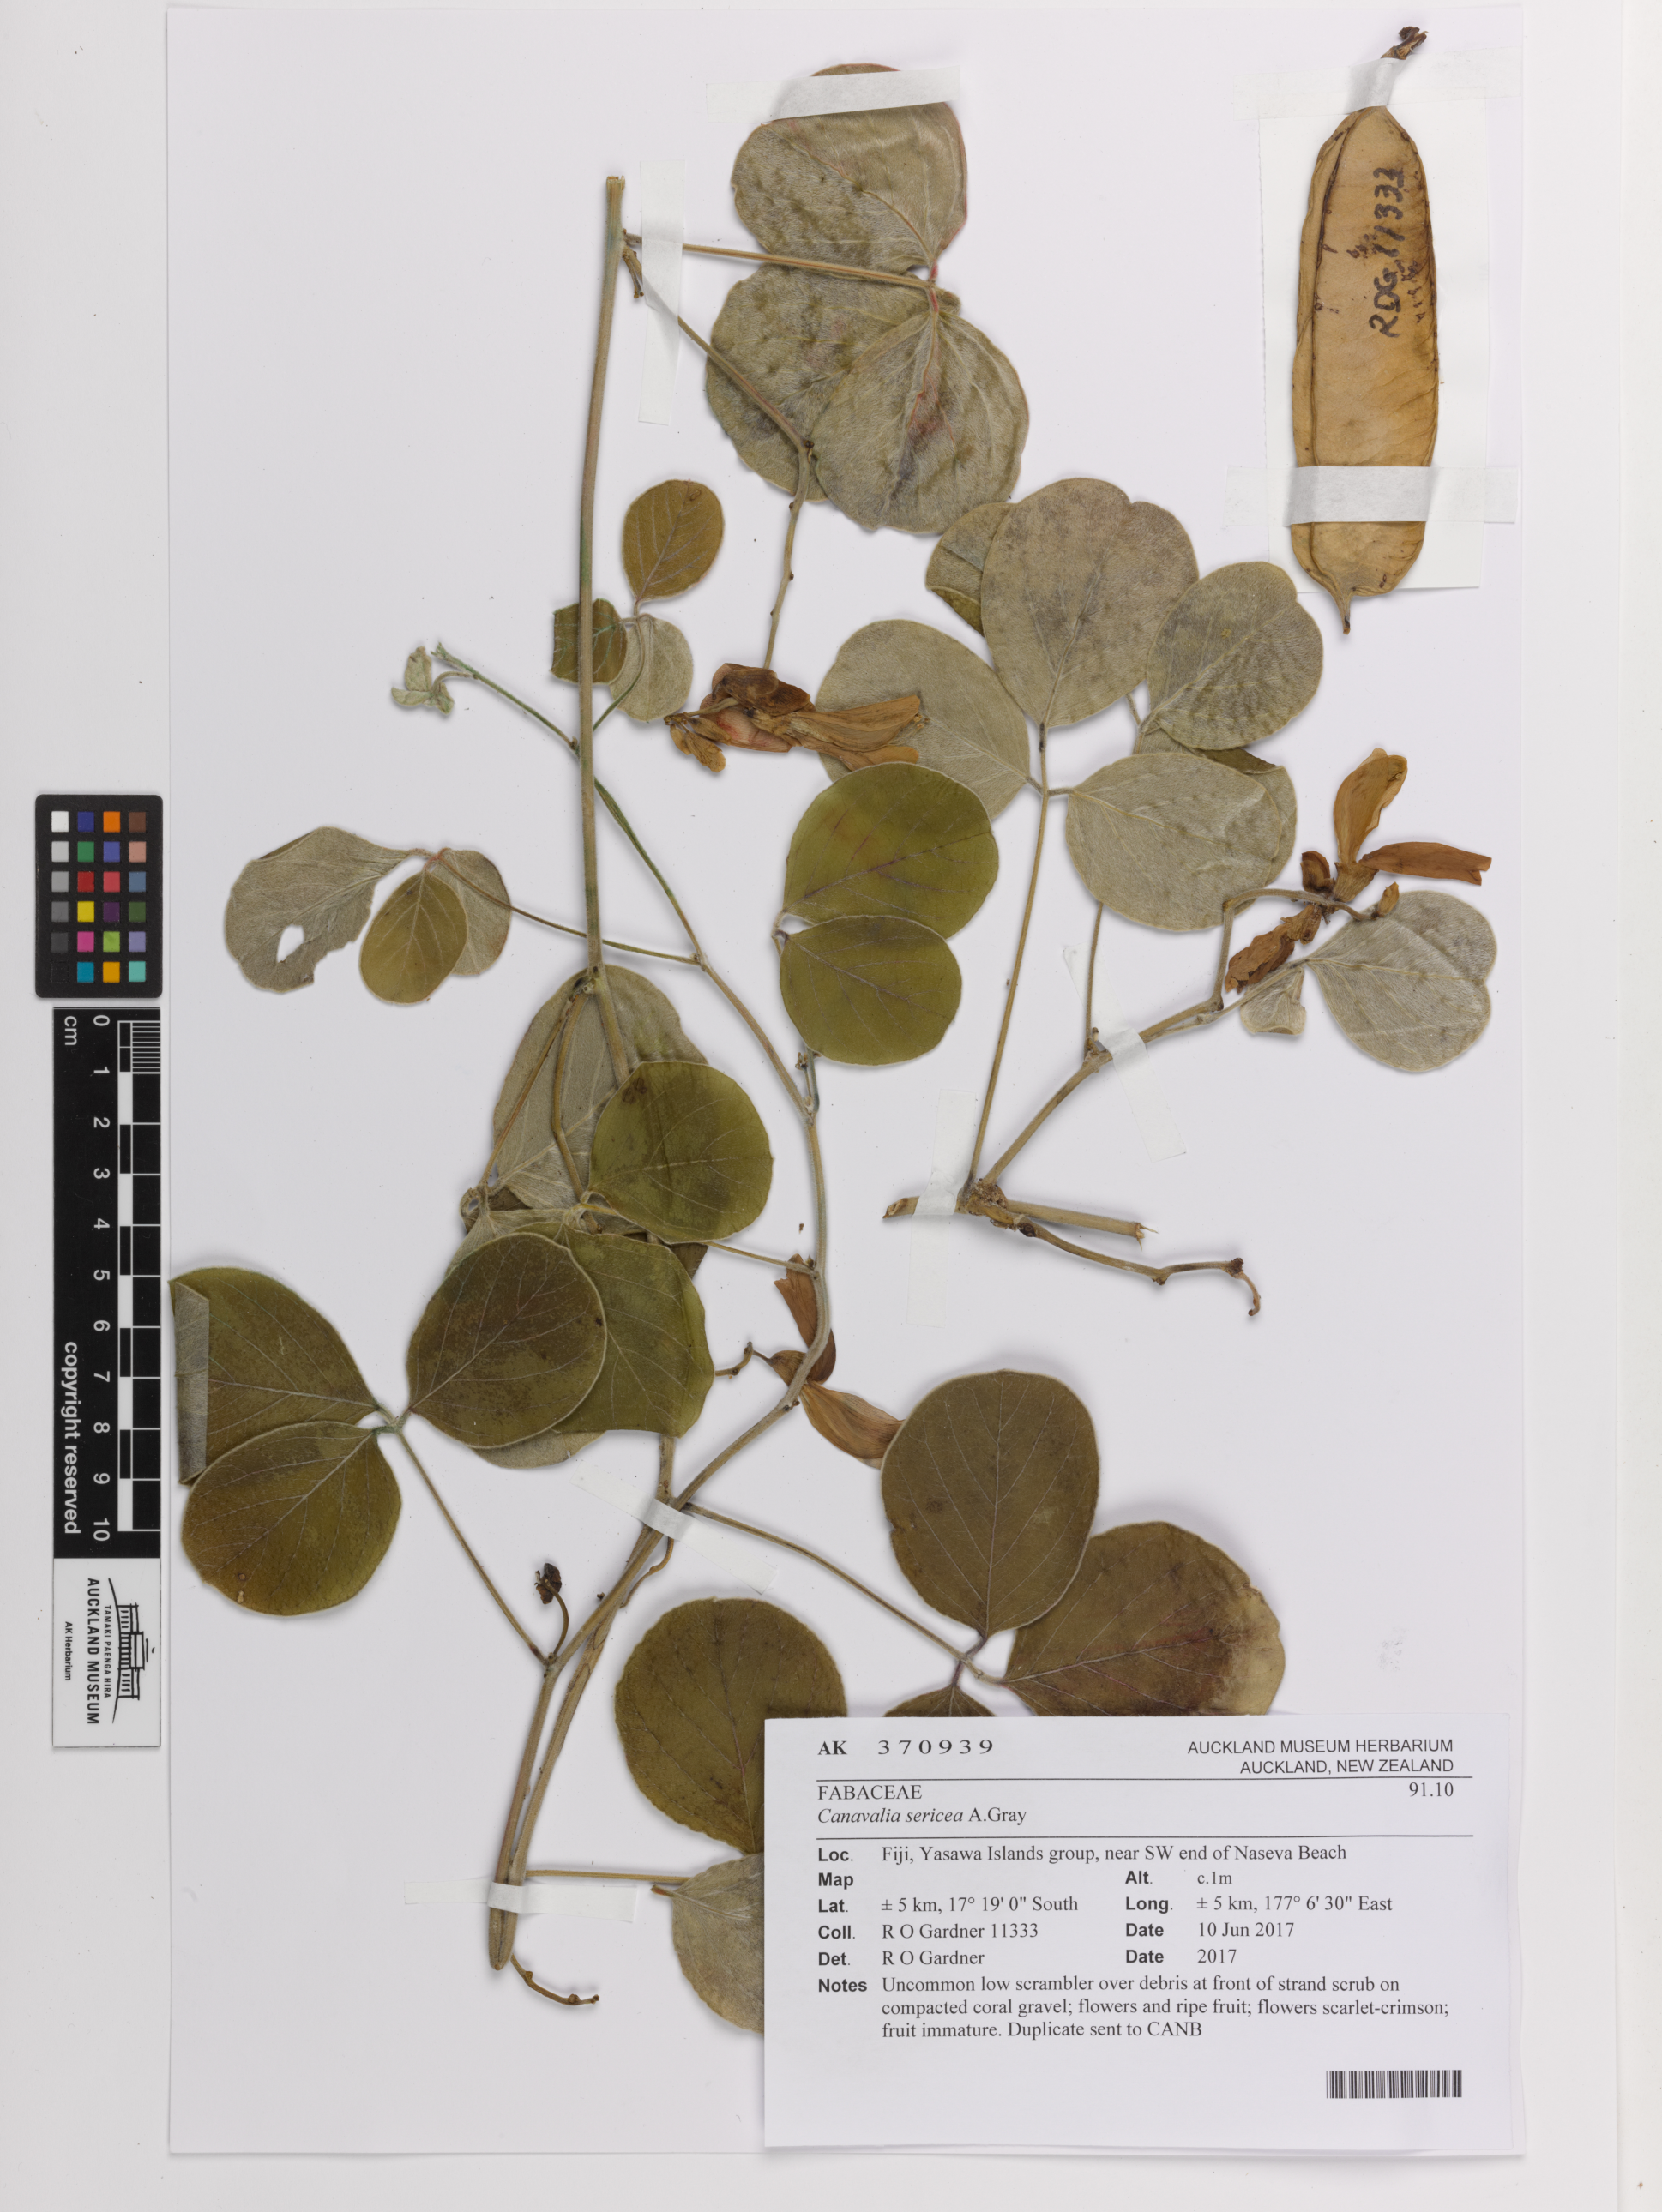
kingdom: Plantae
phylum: Tracheophyta
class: Magnoliopsida
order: Fabales
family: Fabaceae
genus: Canavalia
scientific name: Canavalia sericea
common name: Silky jackbean
